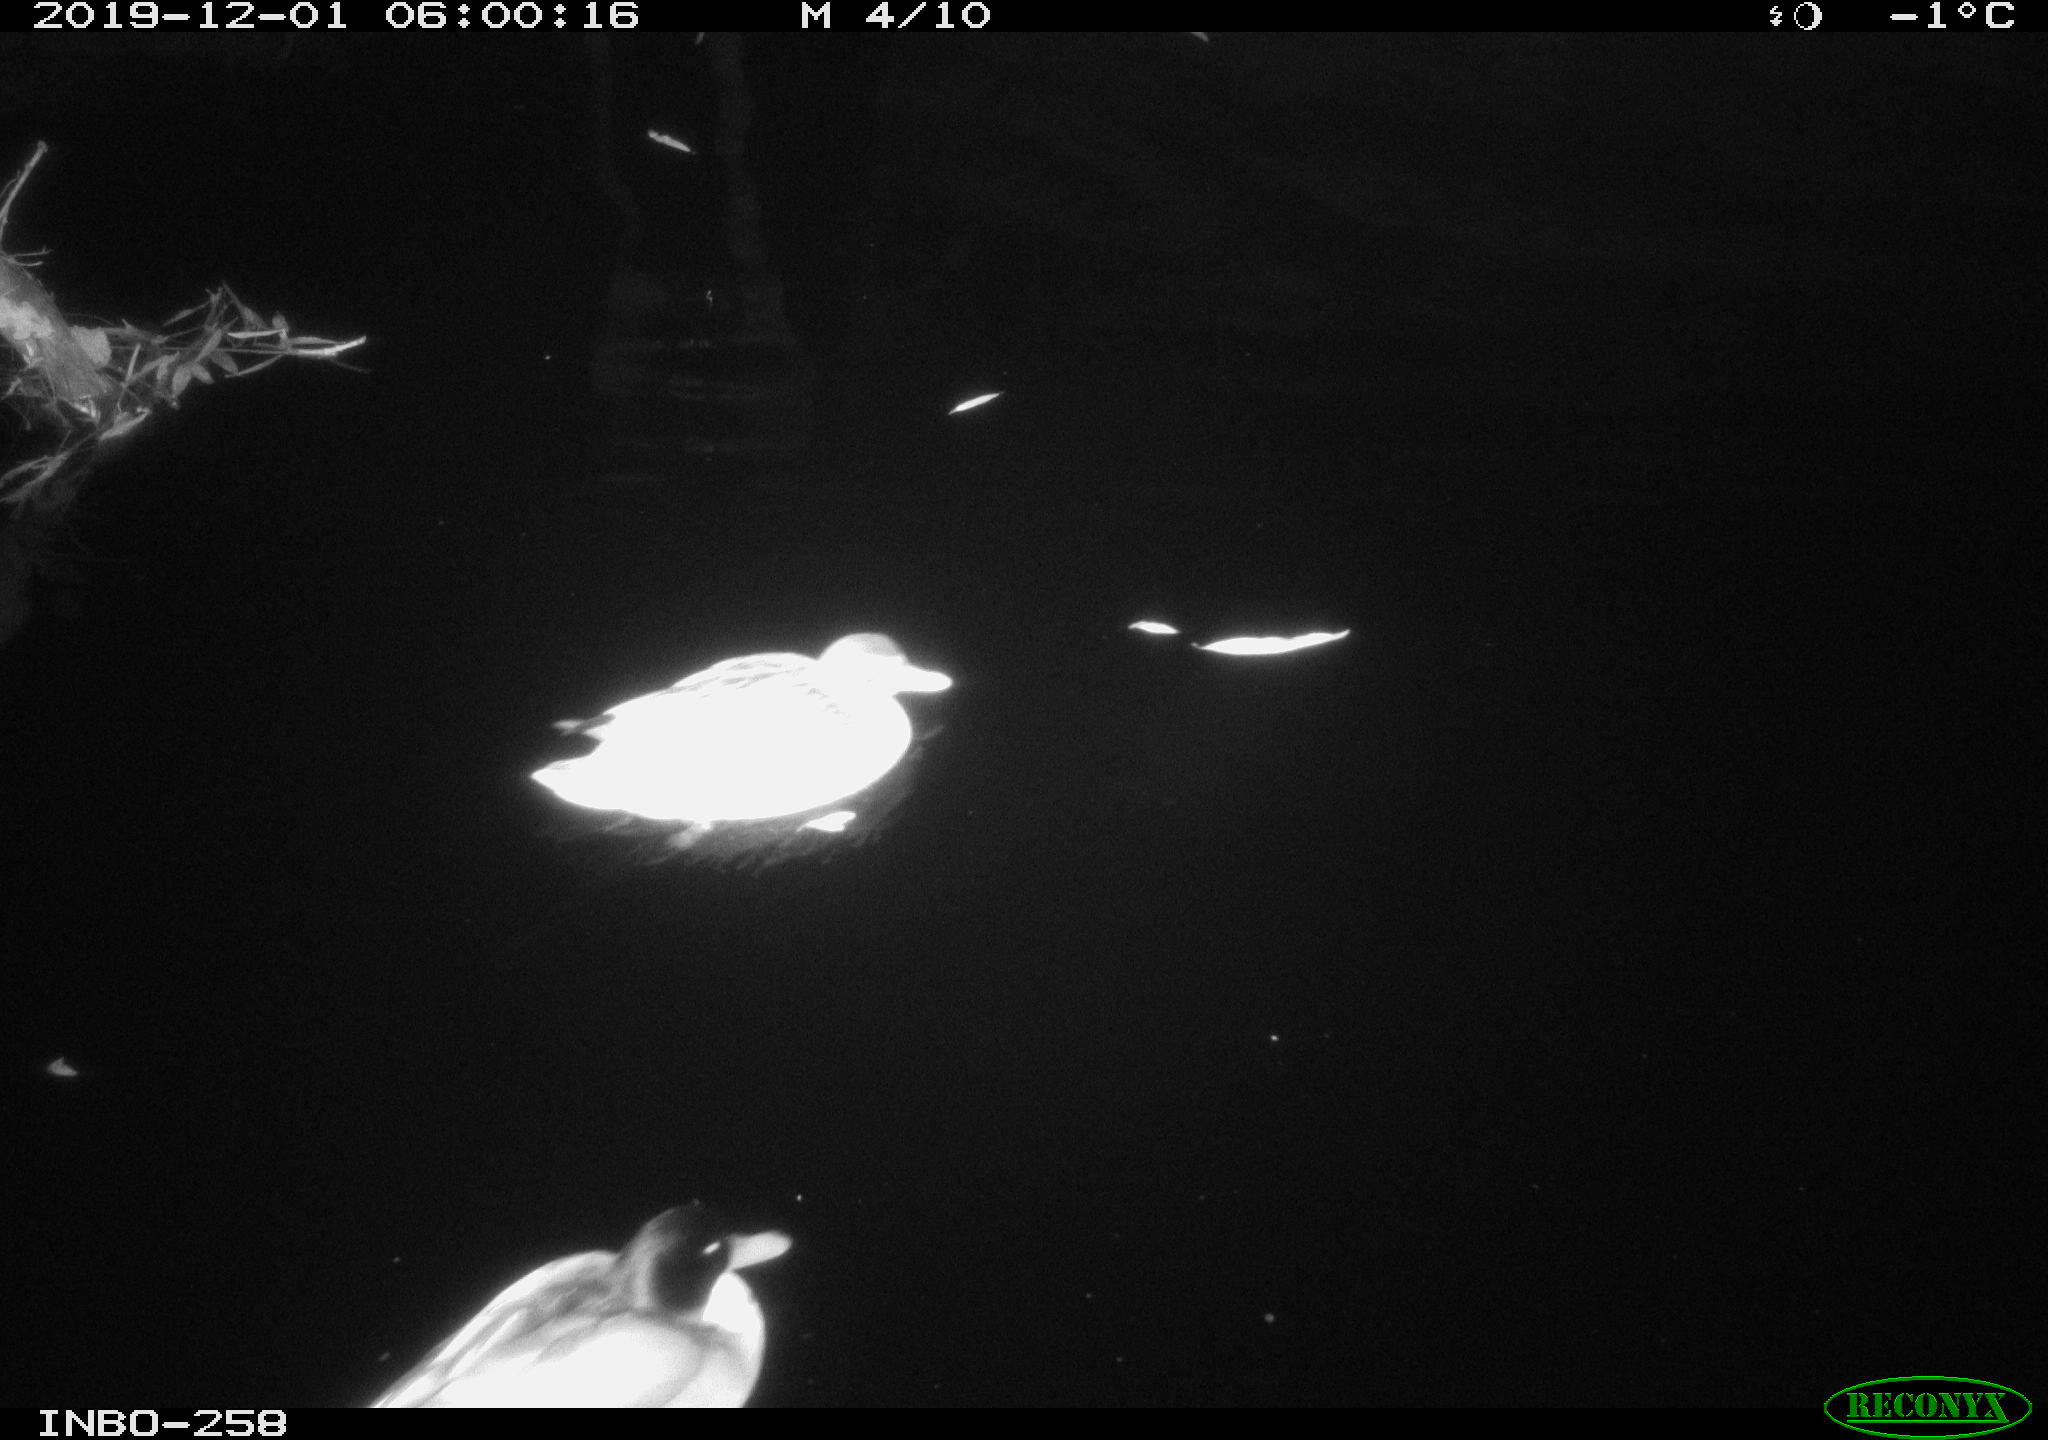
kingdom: Animalia
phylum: Chordata
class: Aves
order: Anseriformes
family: Anatidae
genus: Anas
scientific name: Anas platyrhynchos
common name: Mallard
